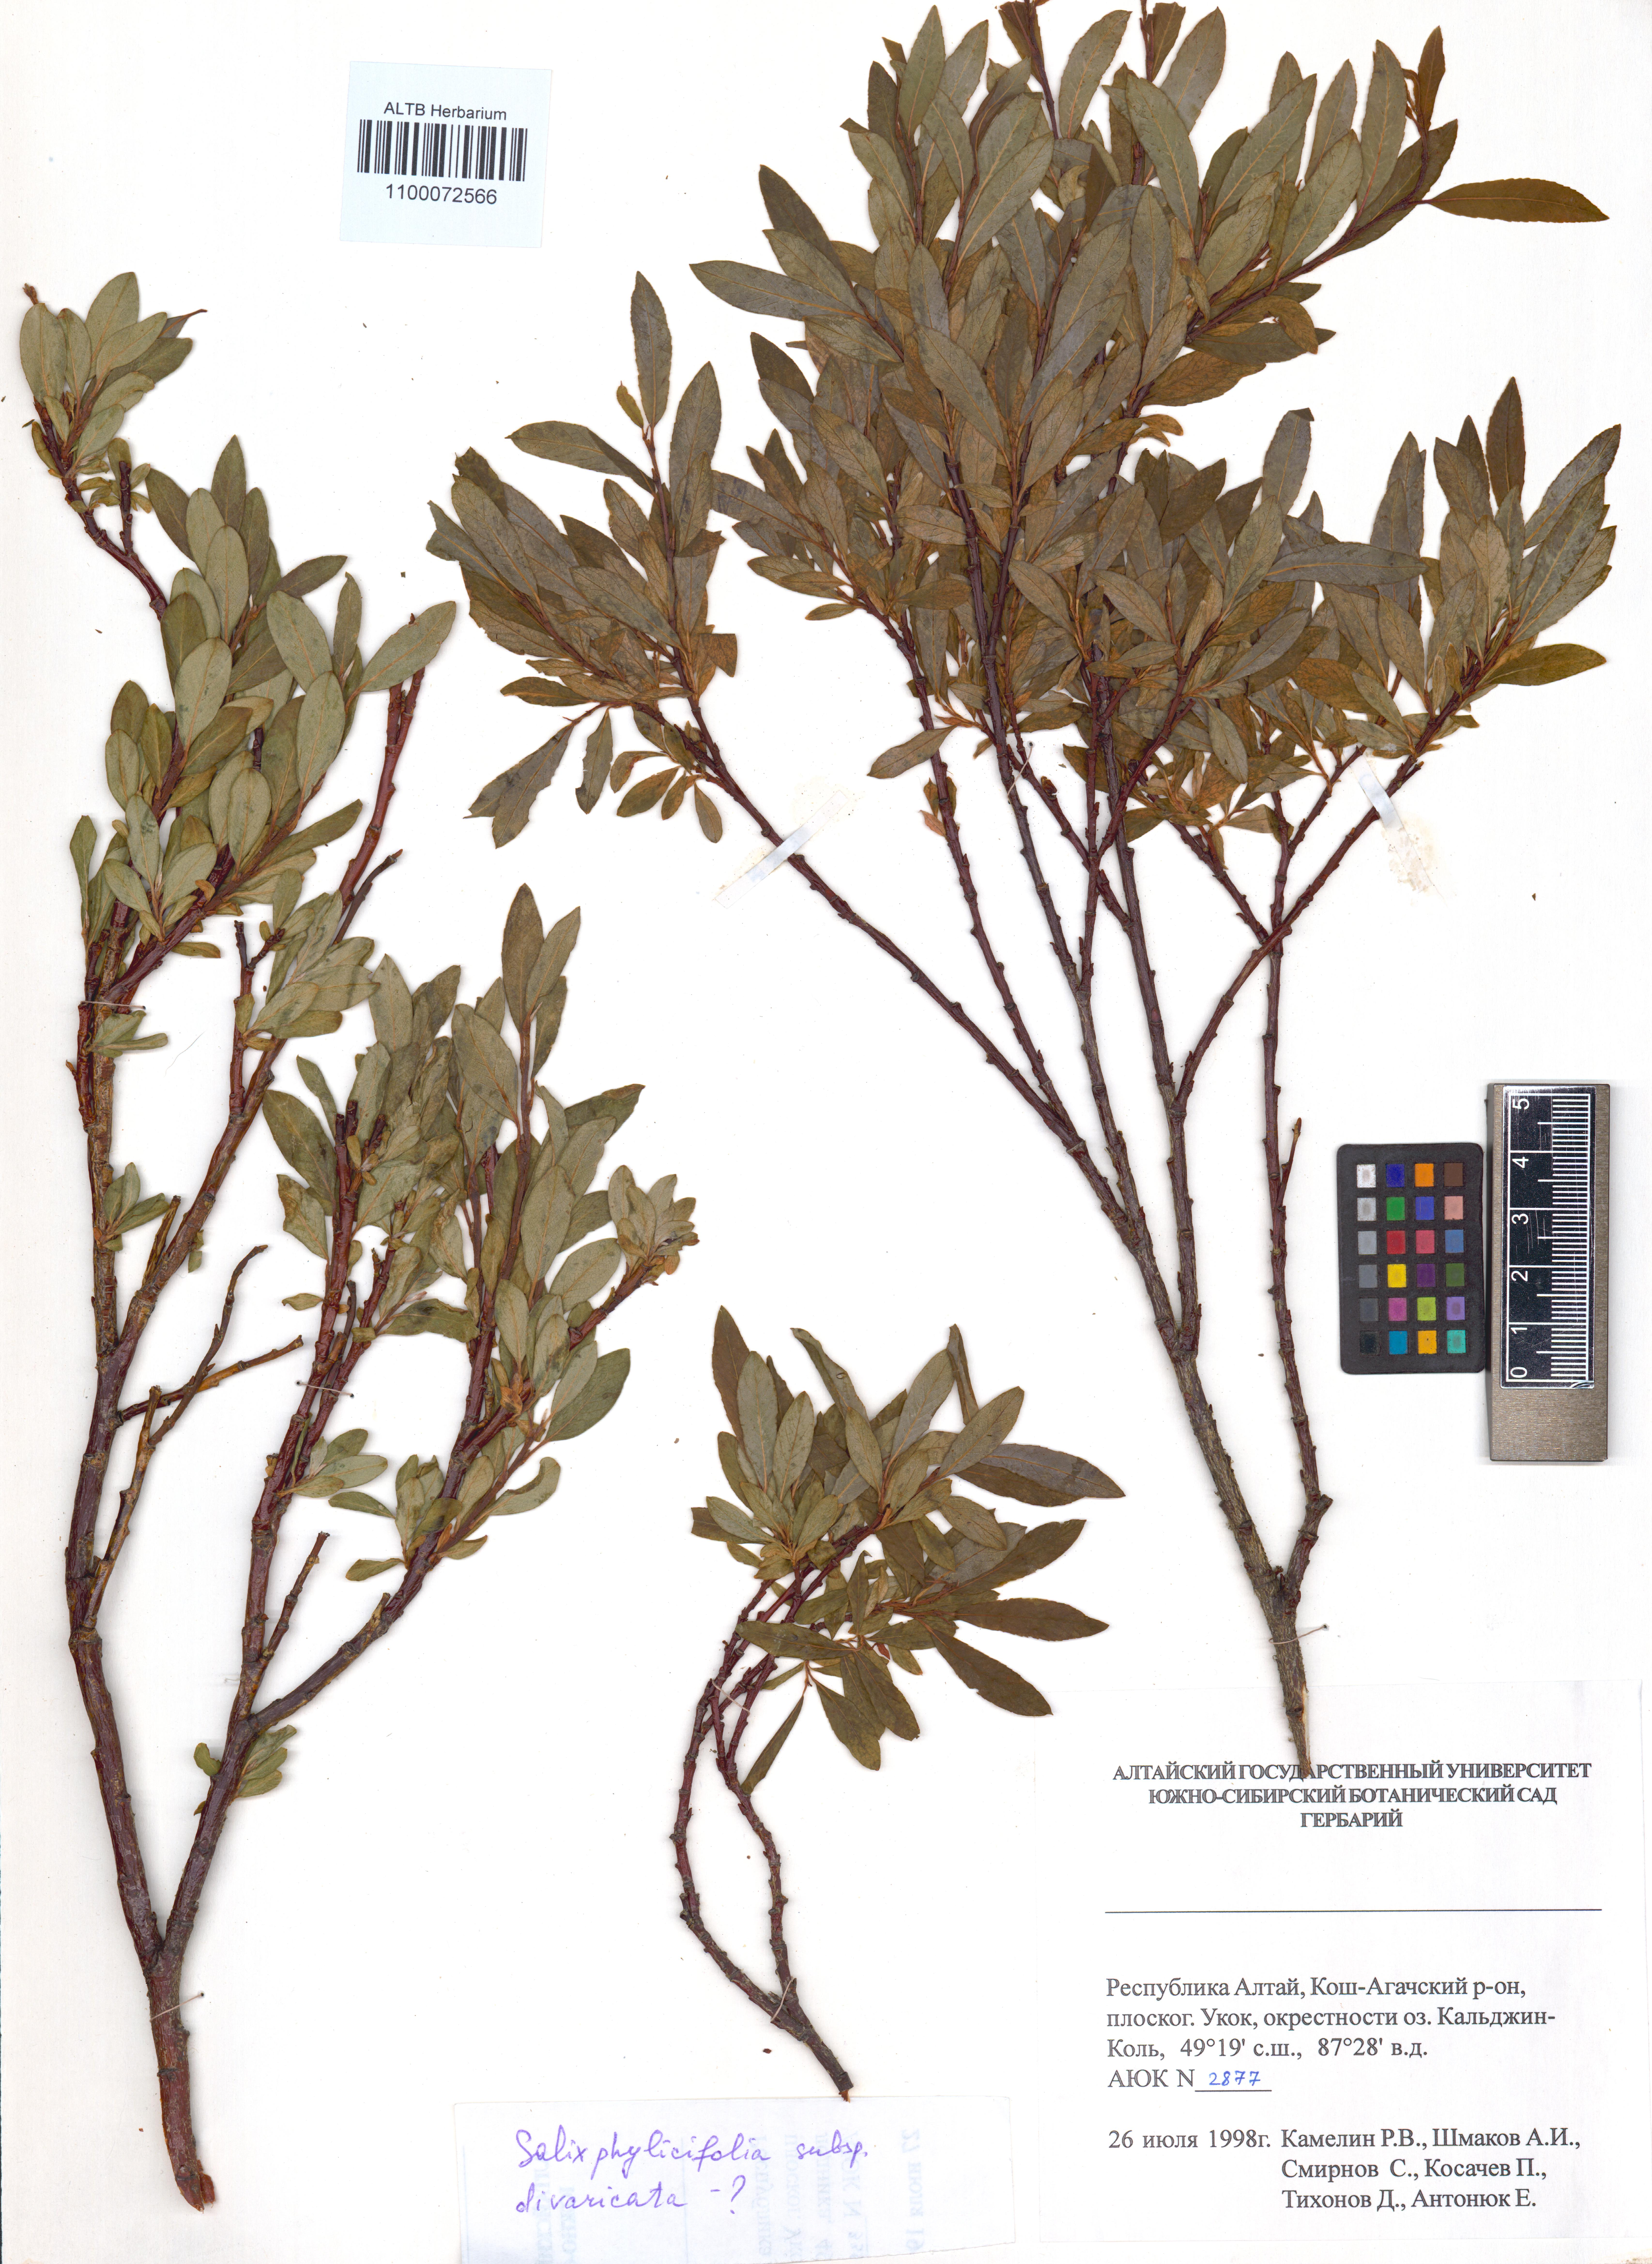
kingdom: Plantae
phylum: Tracheophyta
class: Magnoliopsida
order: Malpighiales
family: Salicaceae
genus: Salix
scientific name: Salix phylicifolia
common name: Tea-leaved willow
